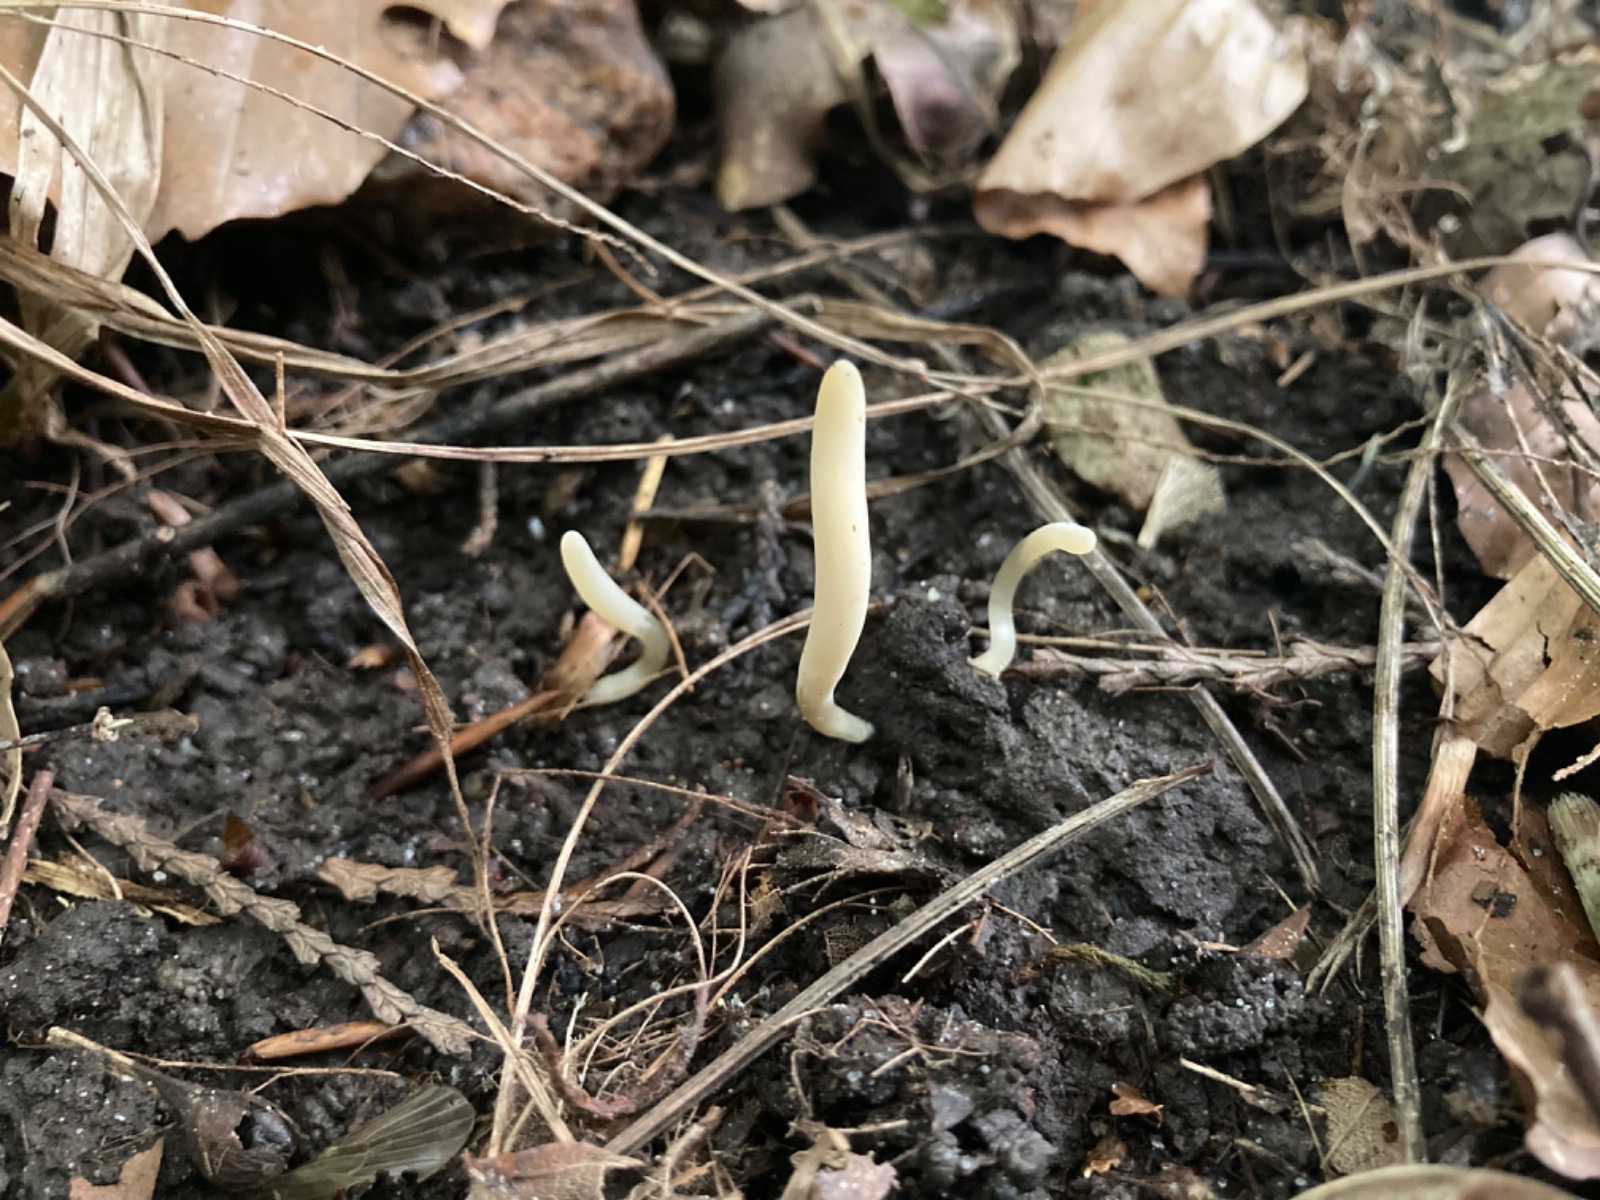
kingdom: Fungi
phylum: Basidiomycota
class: Agaricomycetes
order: Agaricales
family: Clavariaceae
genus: Clavaria
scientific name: Clavaria tenuipes
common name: isabellafarvet køllesvamp
